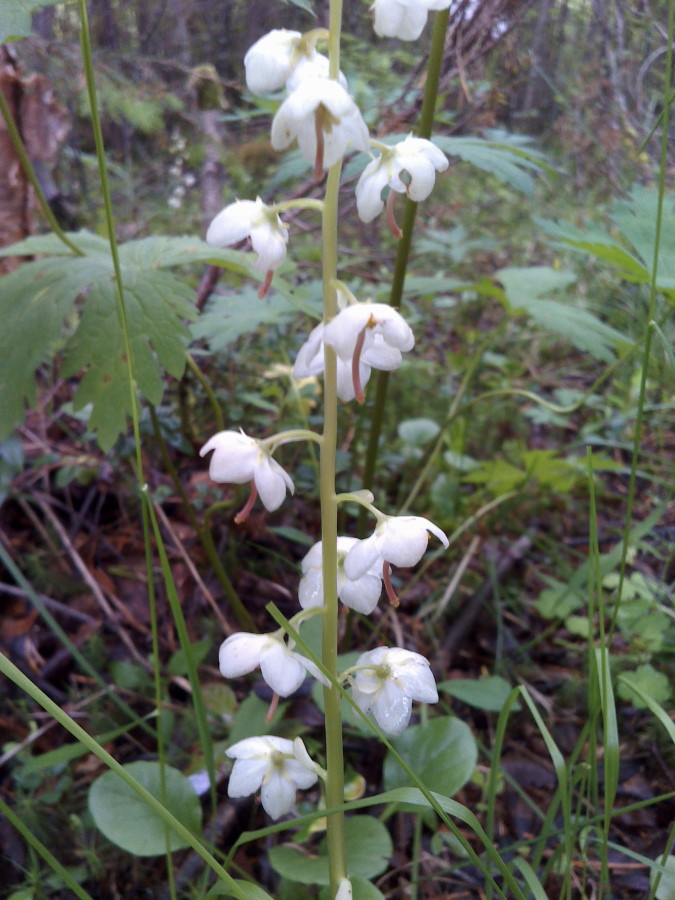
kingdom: Plantae
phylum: Tracheophyta
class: Magnoliopsida
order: Ericales
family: Ericaceae
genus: Pyrola
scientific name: Pyrola rotundifolia
